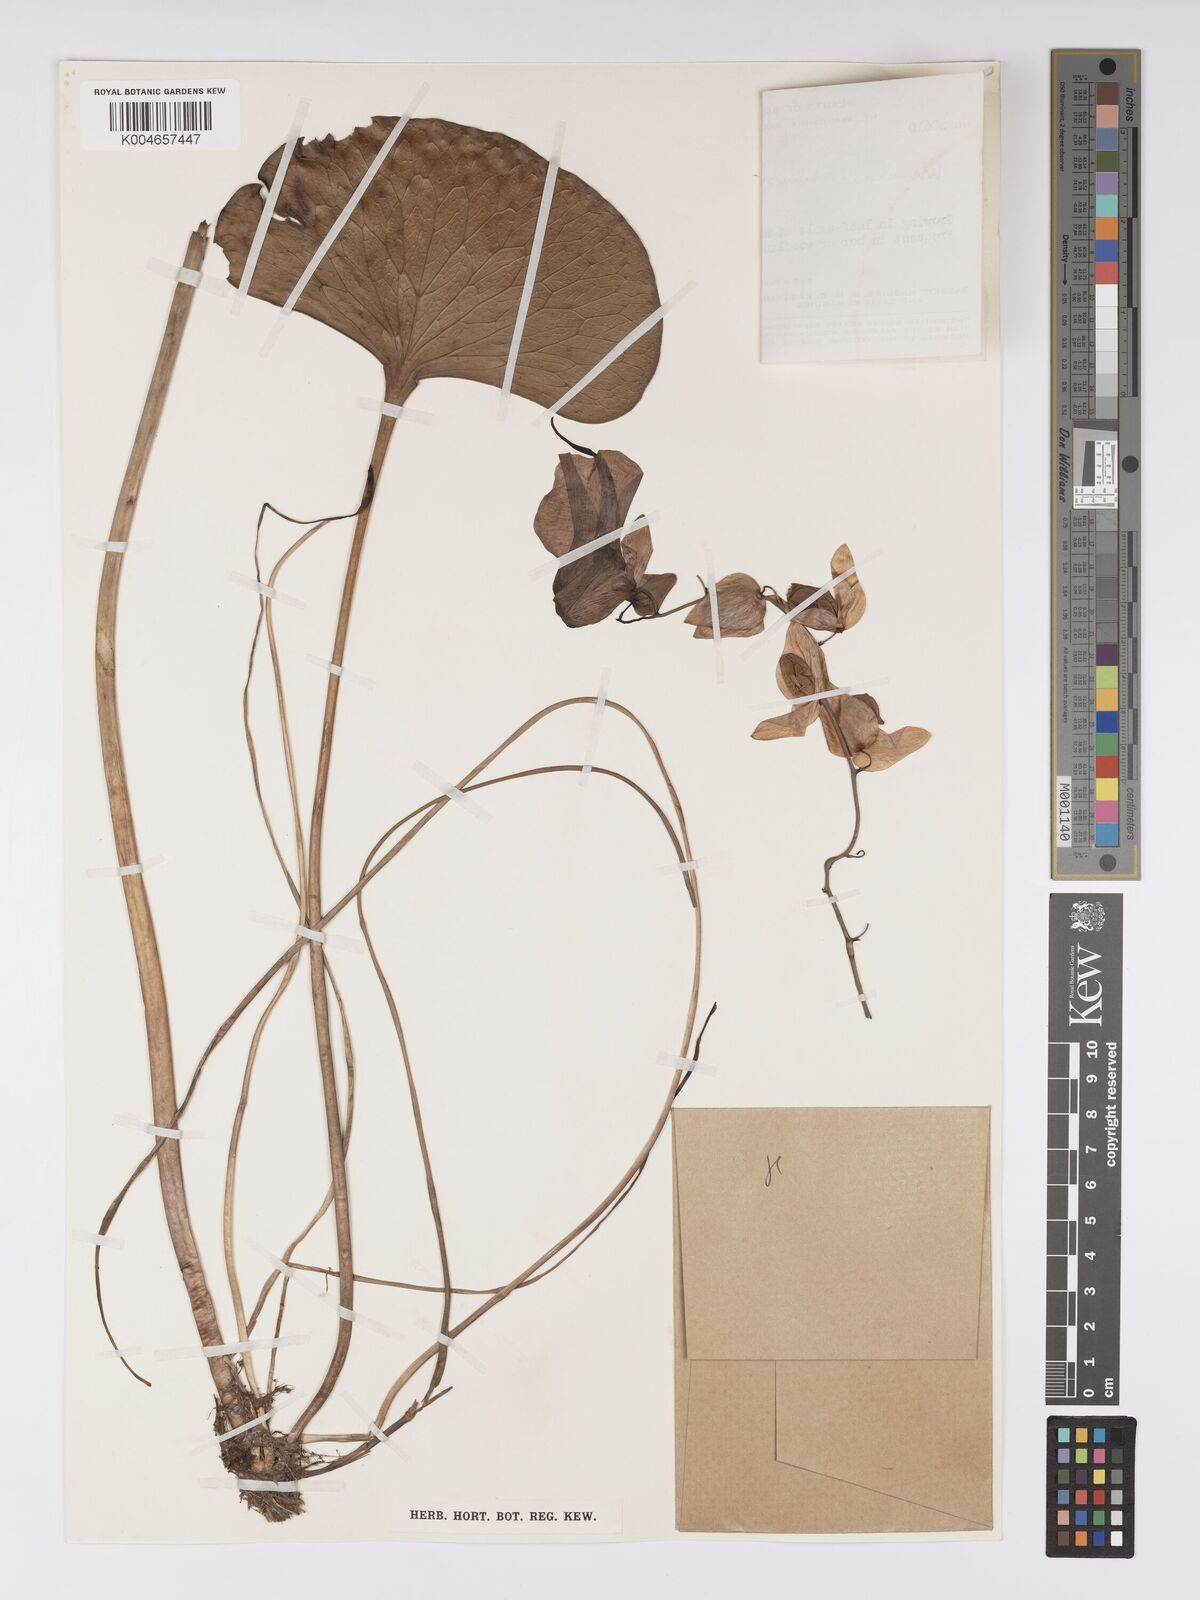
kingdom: Plantae
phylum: Tracheophyta
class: Magnoliopsida
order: Lamiales
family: Lentibulariaceae
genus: Utricularia
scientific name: Utricularia humboldtii
